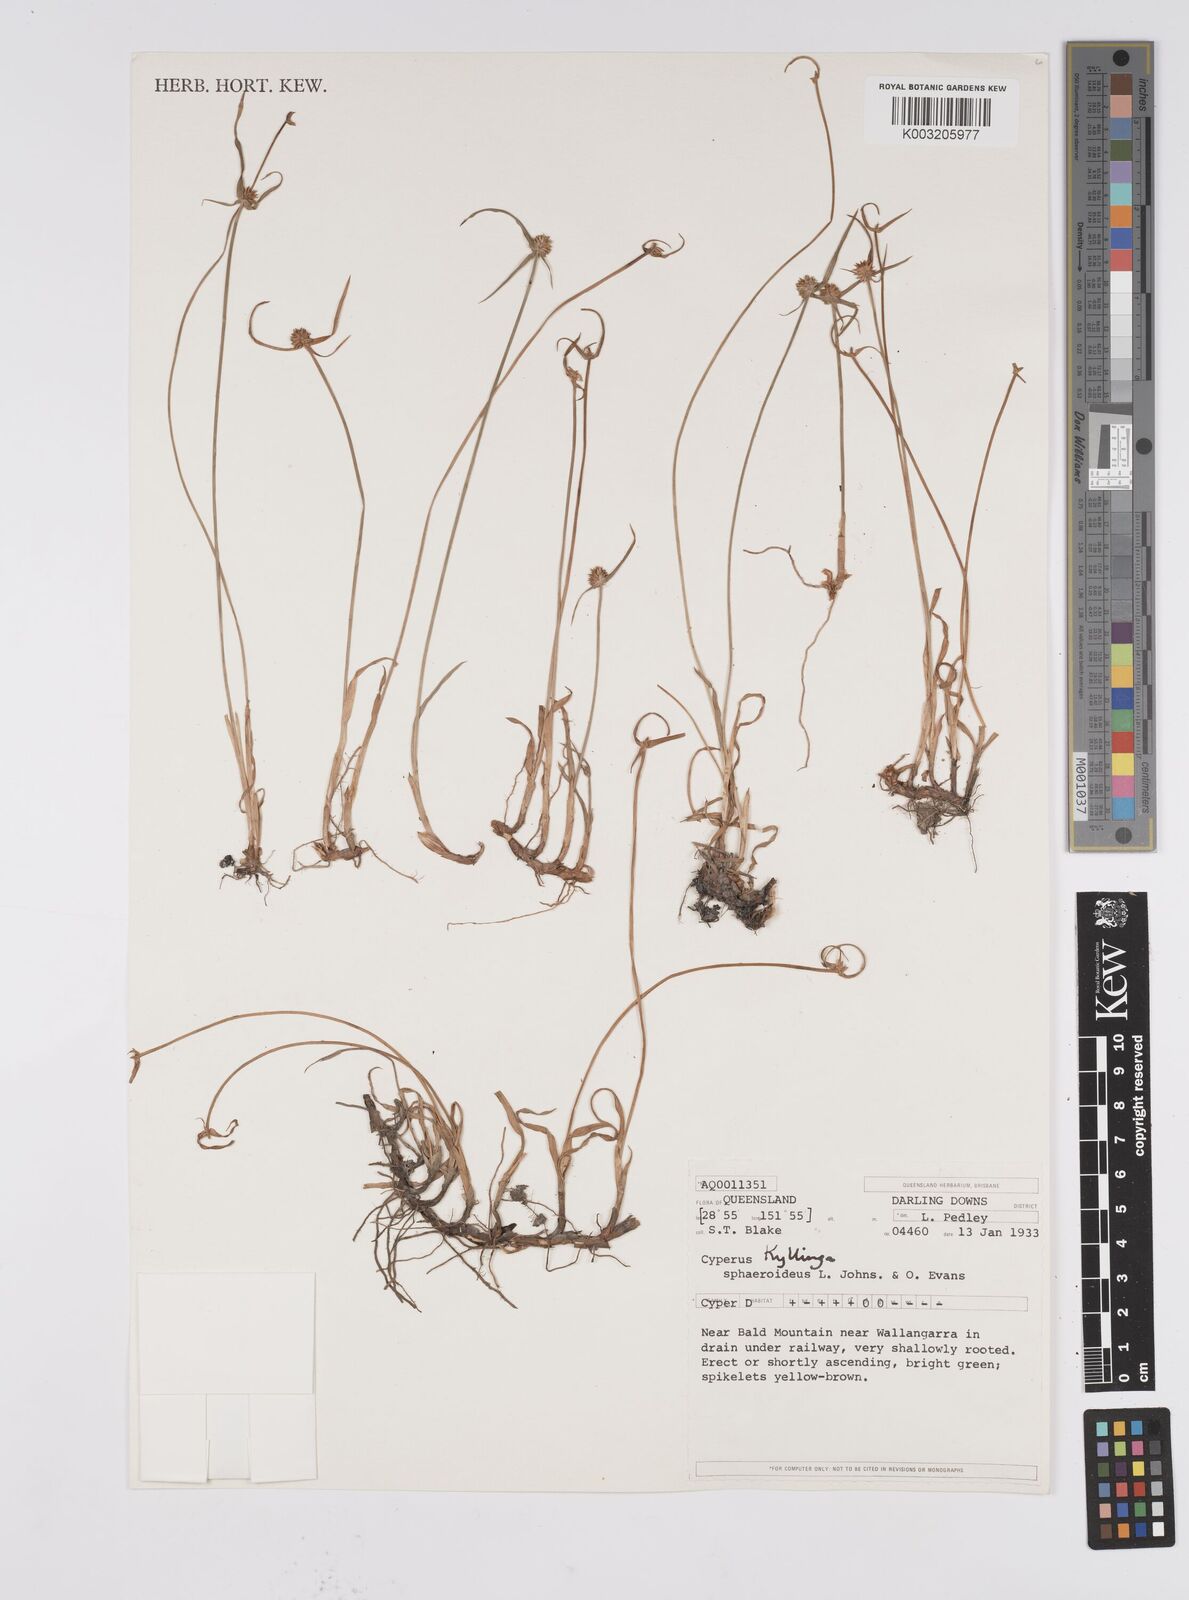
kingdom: Plantae
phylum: Tracheophyta
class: Liliopsida
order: Poales
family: Cyperaceae
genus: Cyperus
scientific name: Cyperus longus
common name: Galingale
